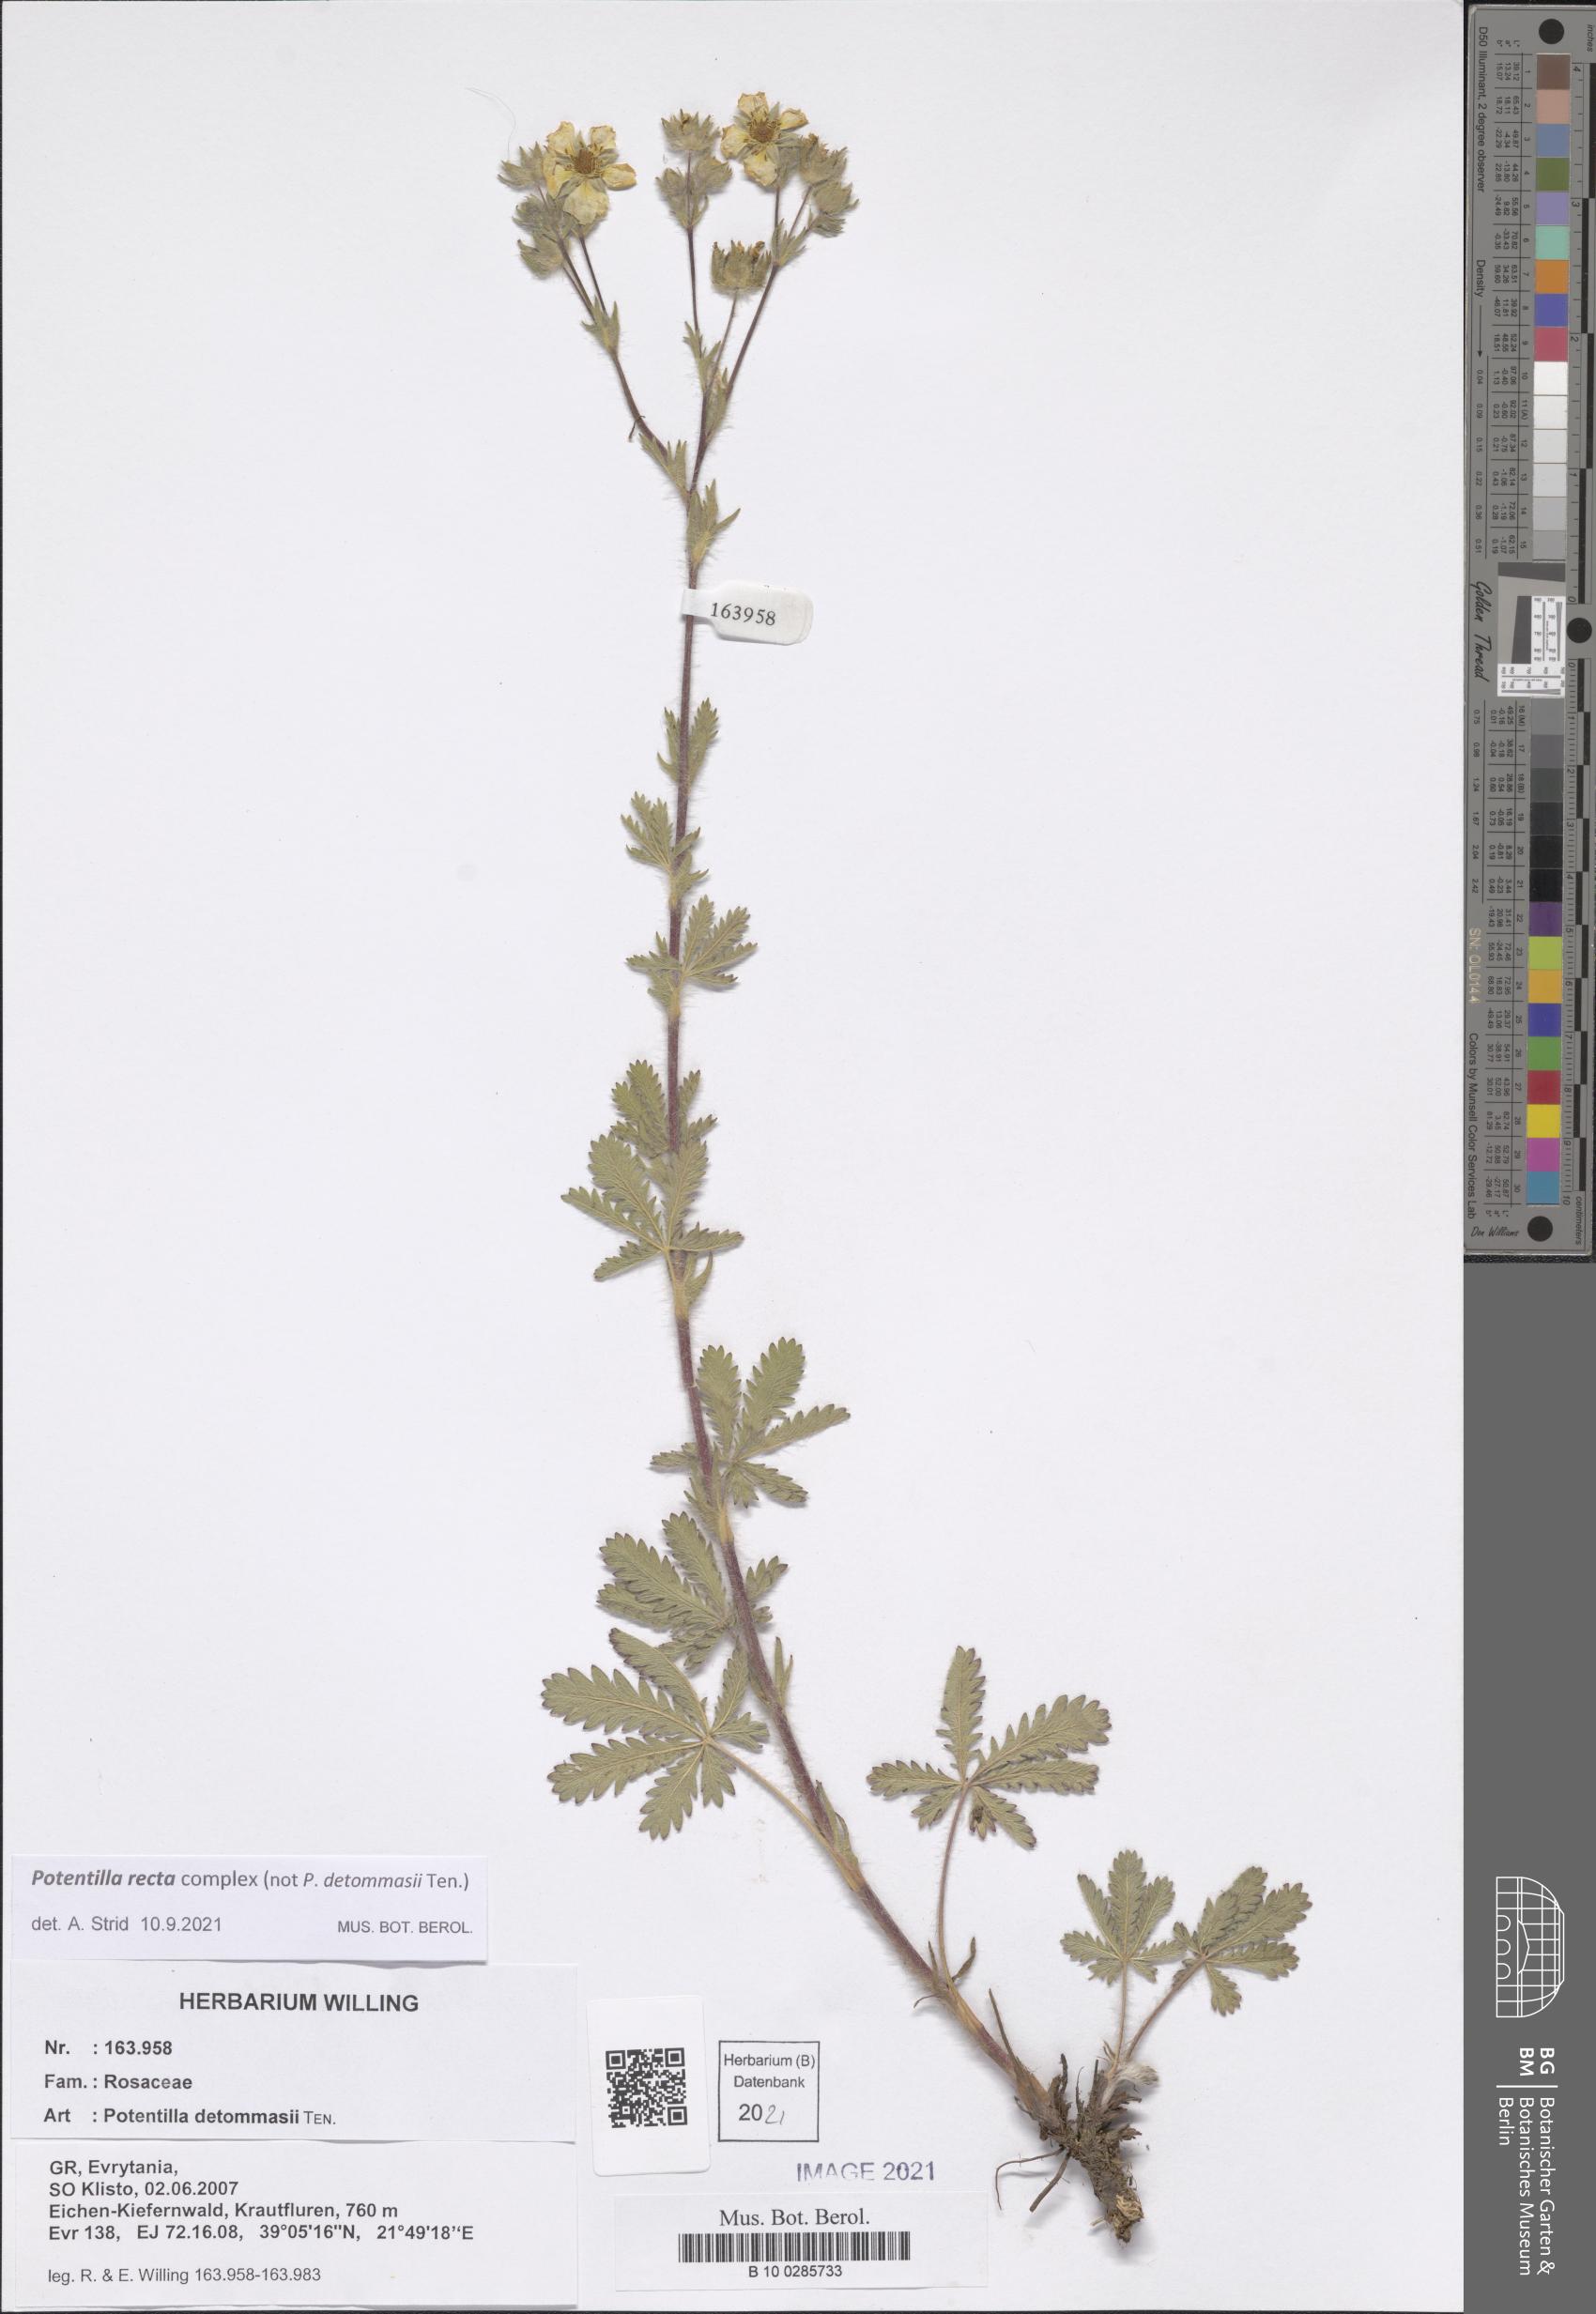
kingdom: Plantae
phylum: Tracheophyta
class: Magnoliopsida
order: Rosales
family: Rosaceae
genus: Potentilla
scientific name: Potentilla recta
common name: Sulphur cinquefoil
